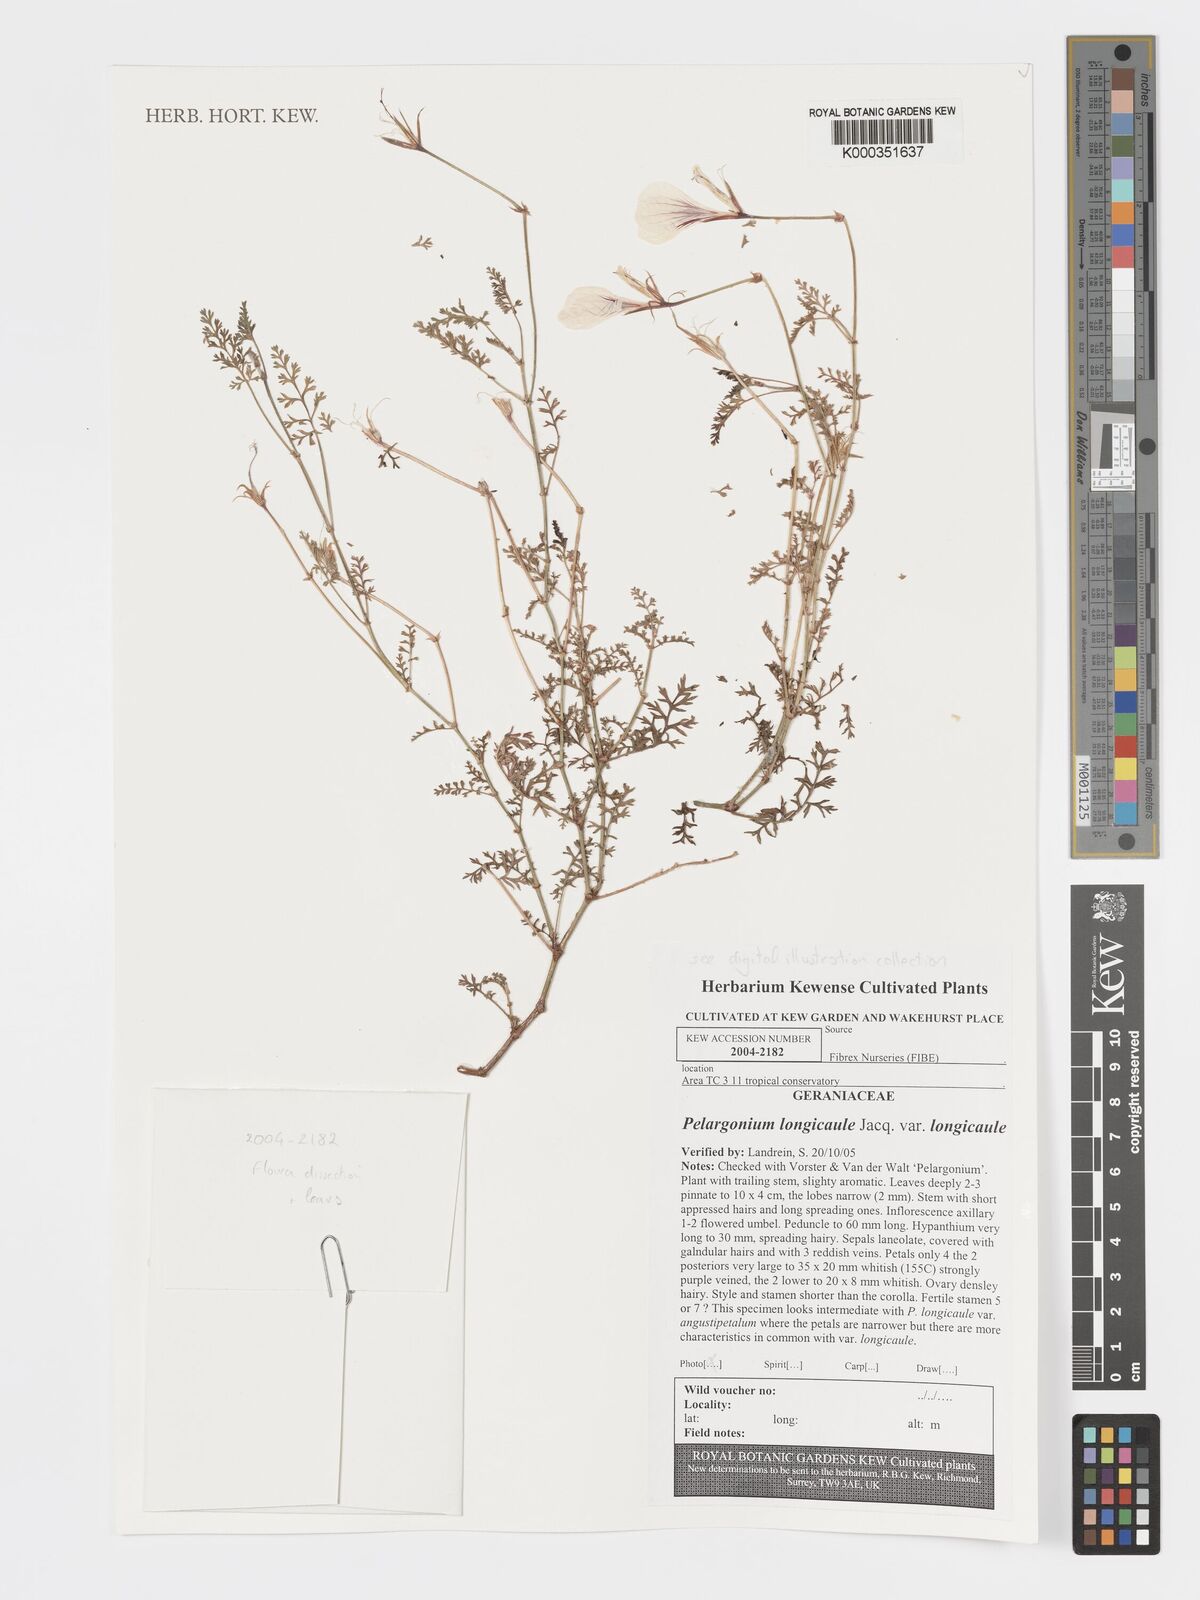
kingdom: Plantae
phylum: Tracheophyta
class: Magnoliopsida
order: Geraniales
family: Geraniaceae
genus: Pelargonium
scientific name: Pelargonium longicaule
